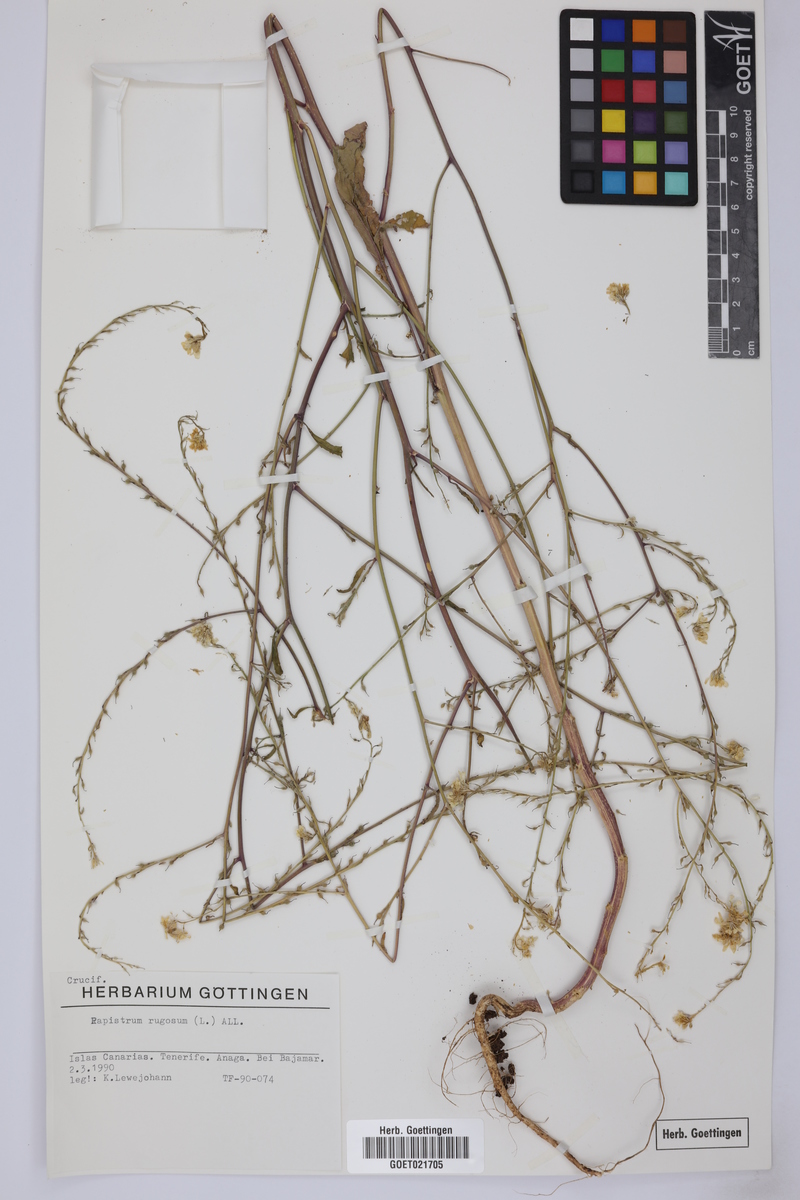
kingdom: Plantae
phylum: Tracheophyta
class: Magnoliopsida
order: Brassicales
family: Brassicaceae
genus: Rapistrum
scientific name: Rapistrum rugosum
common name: Annual bastardcabbage
